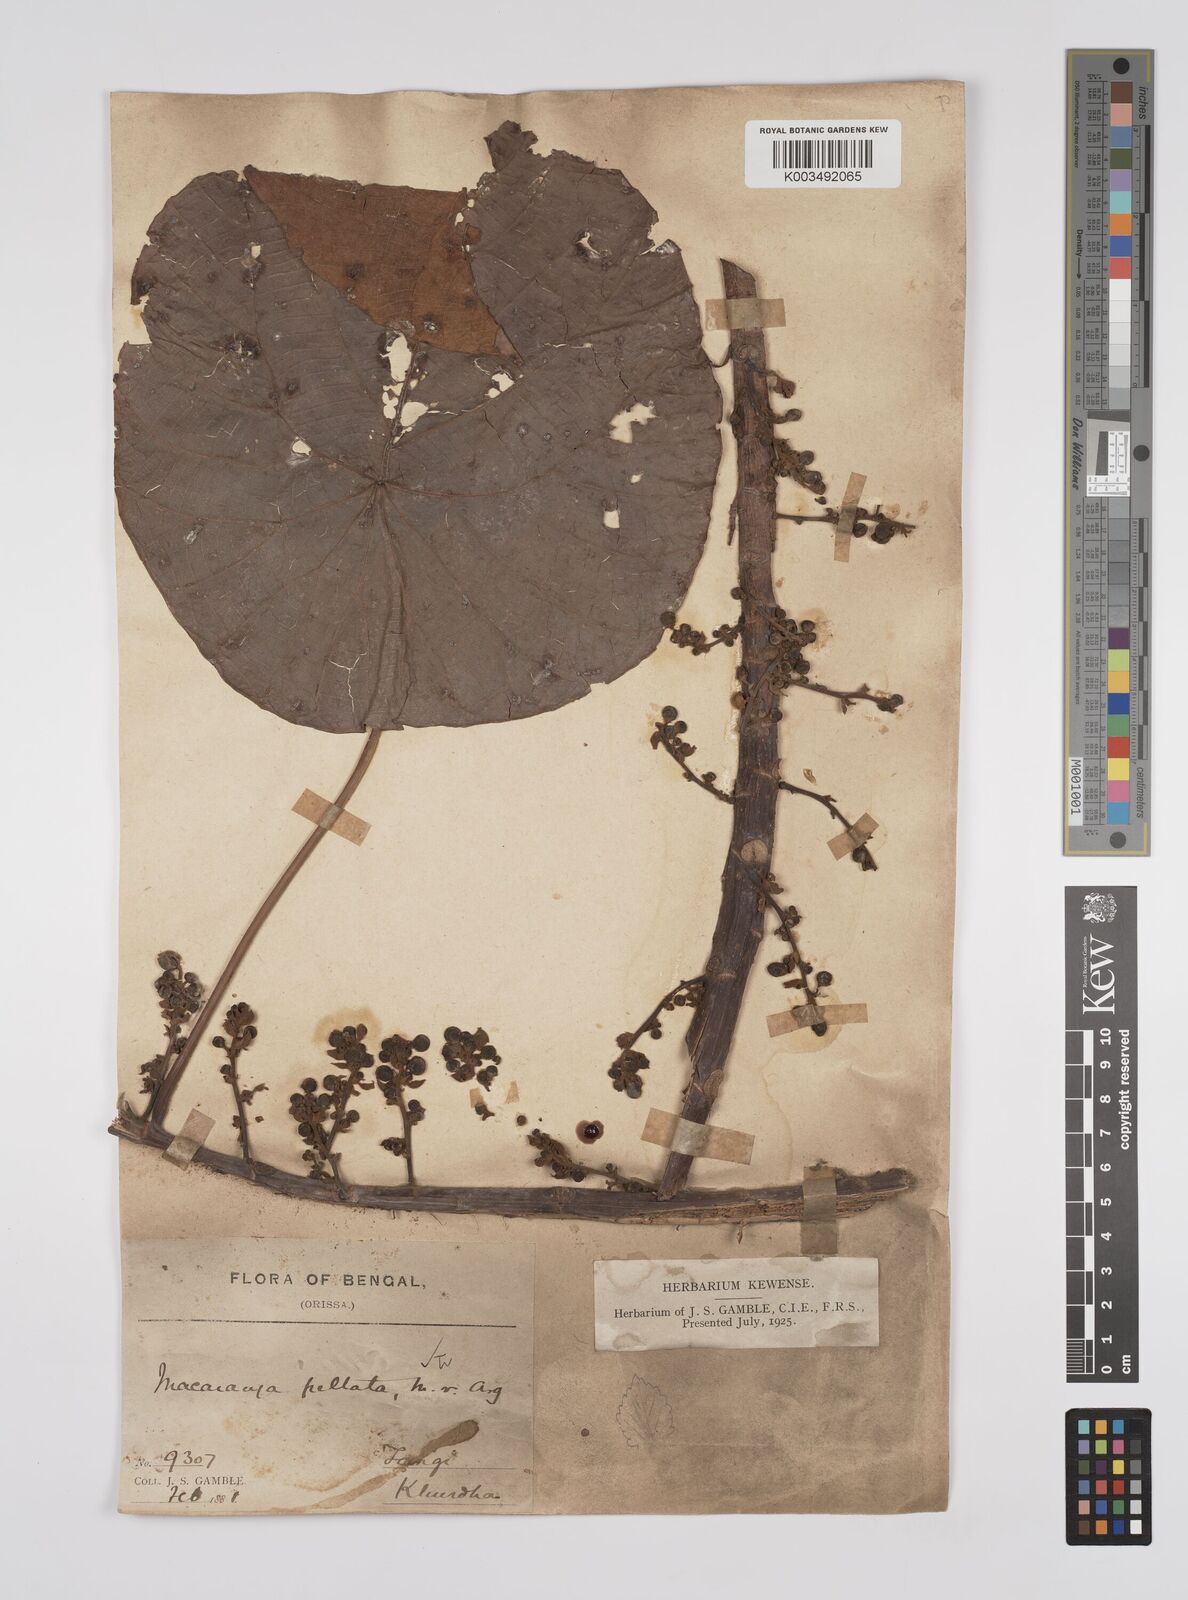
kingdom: Plantae
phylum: Tracheophyta
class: Magnoliopsida
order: Malpighiales
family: Euphorbiaceae
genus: Macaranga
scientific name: Macaranga peltata
